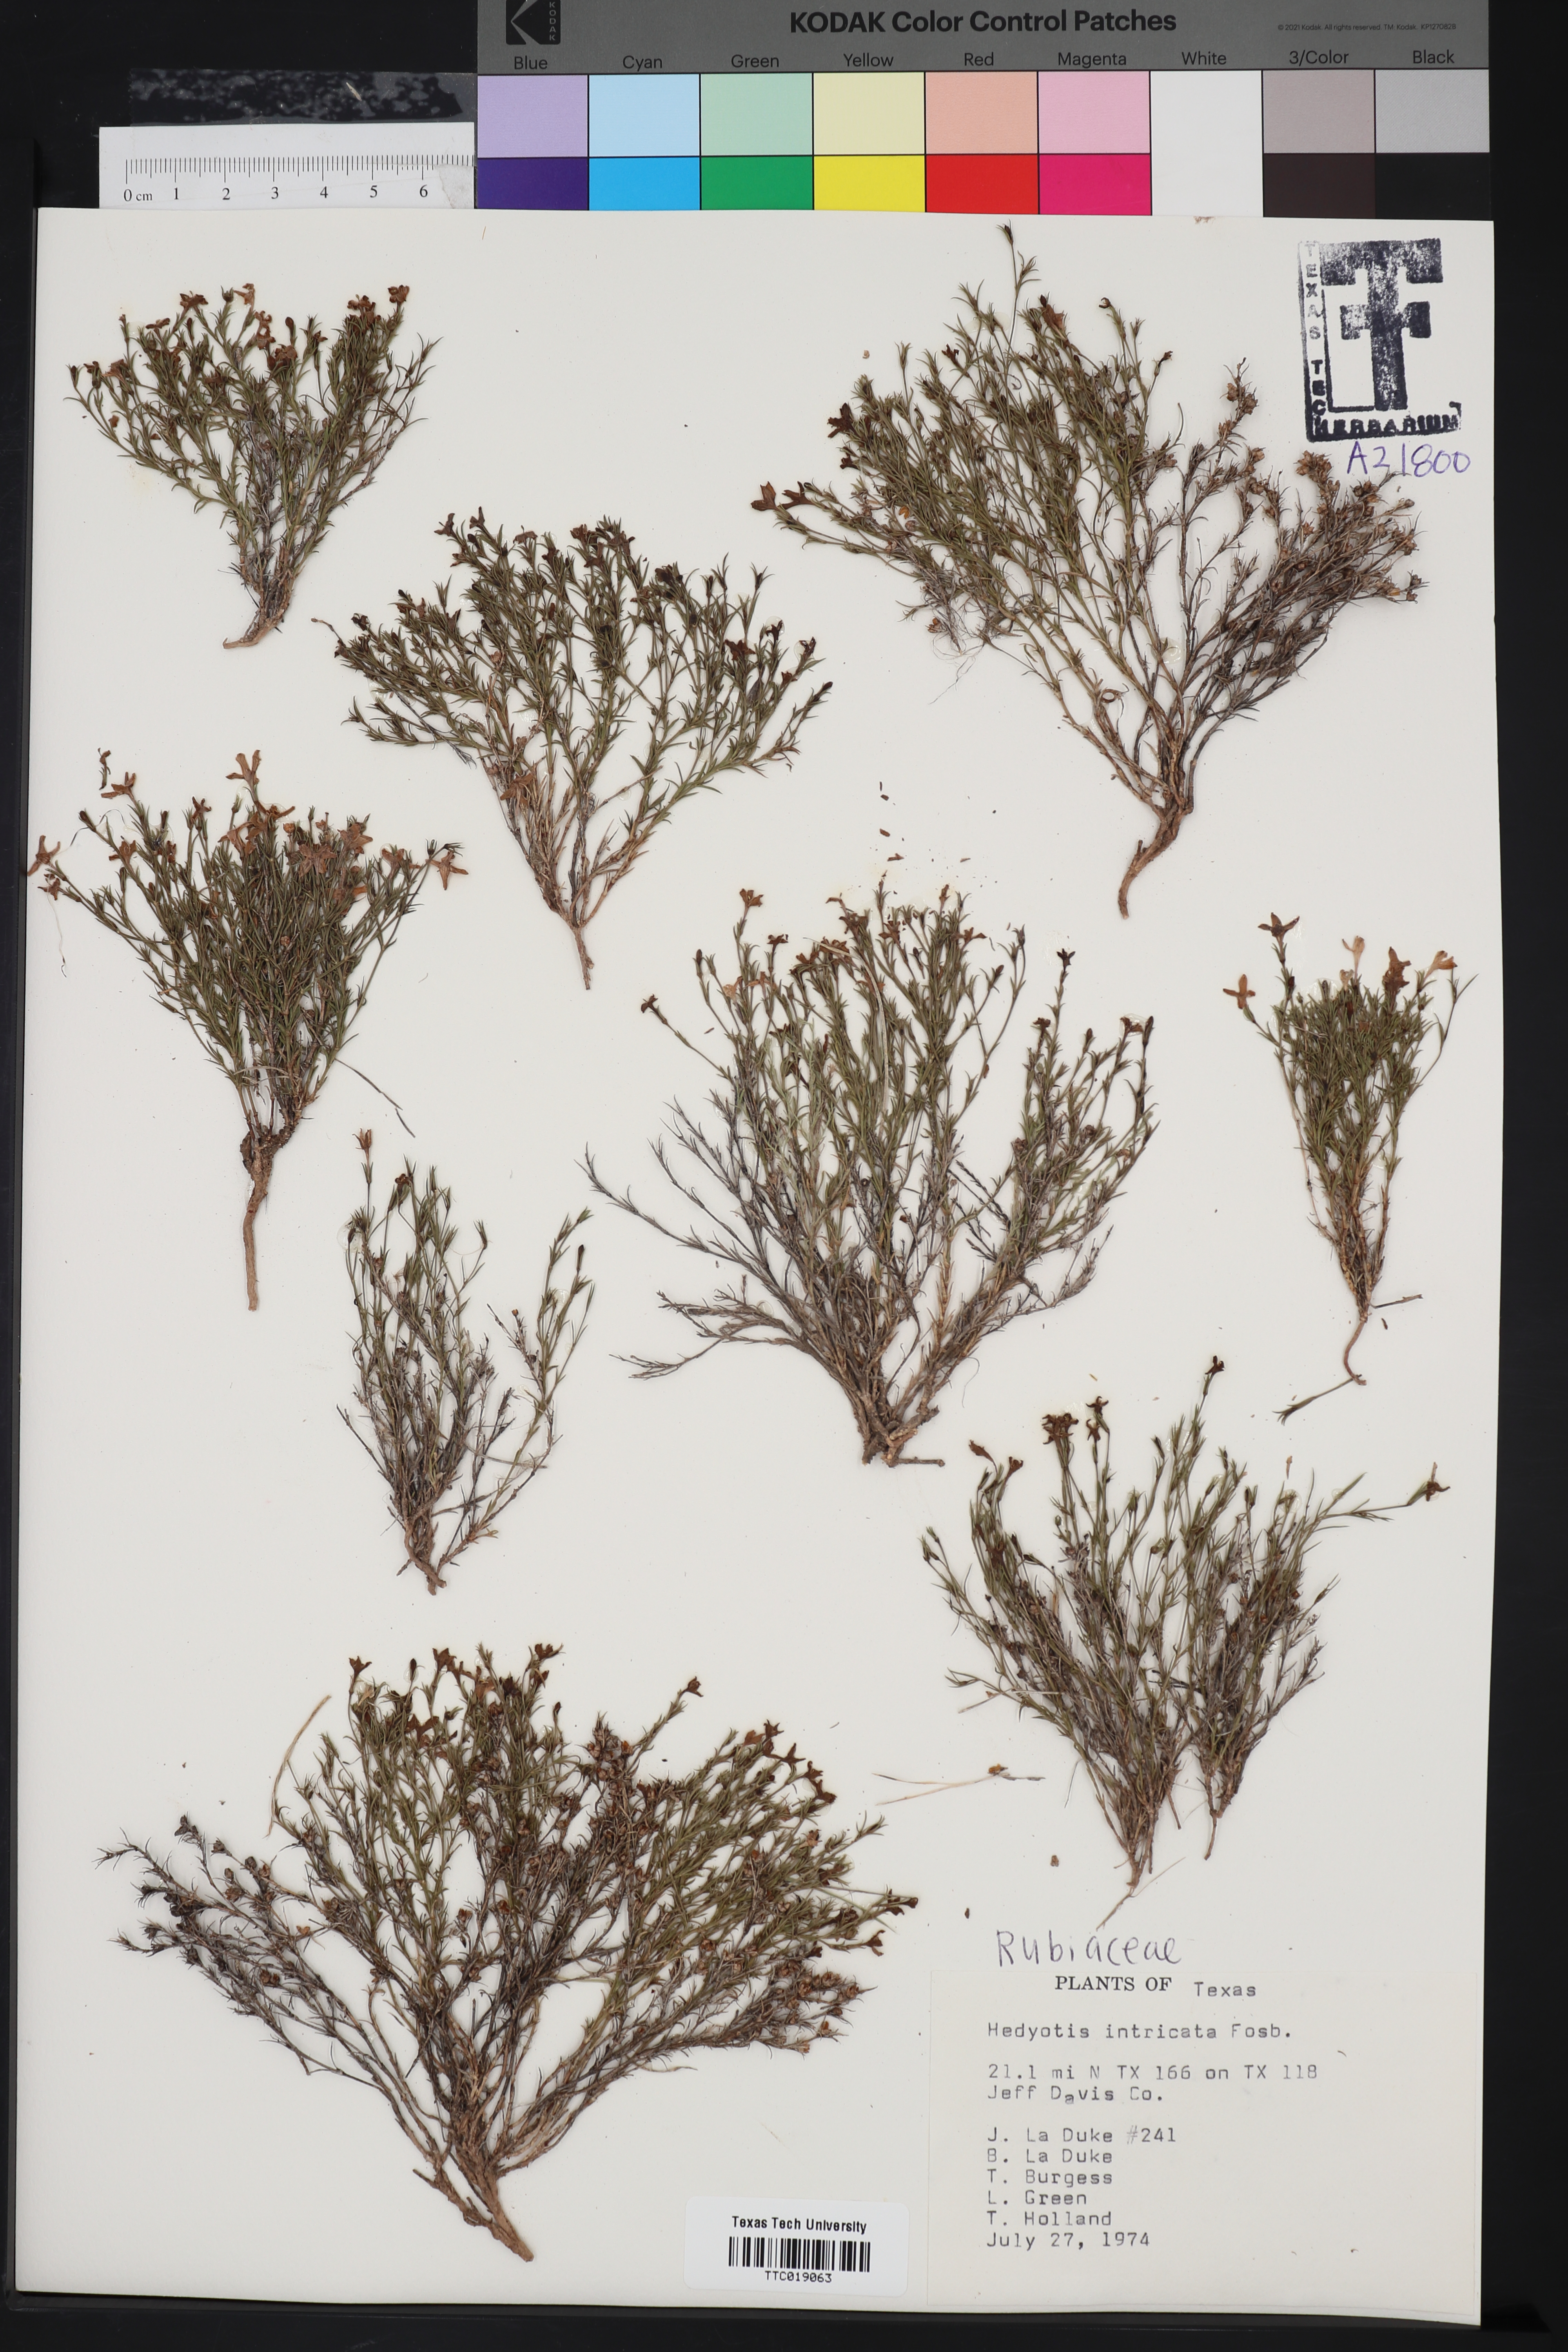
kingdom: Plantae
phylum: Tracheophyta
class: Magnoliopsida
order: Gentianales
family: Rubiaceae
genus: Arcytophyllum
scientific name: Arcytophyllum fasciculatum
